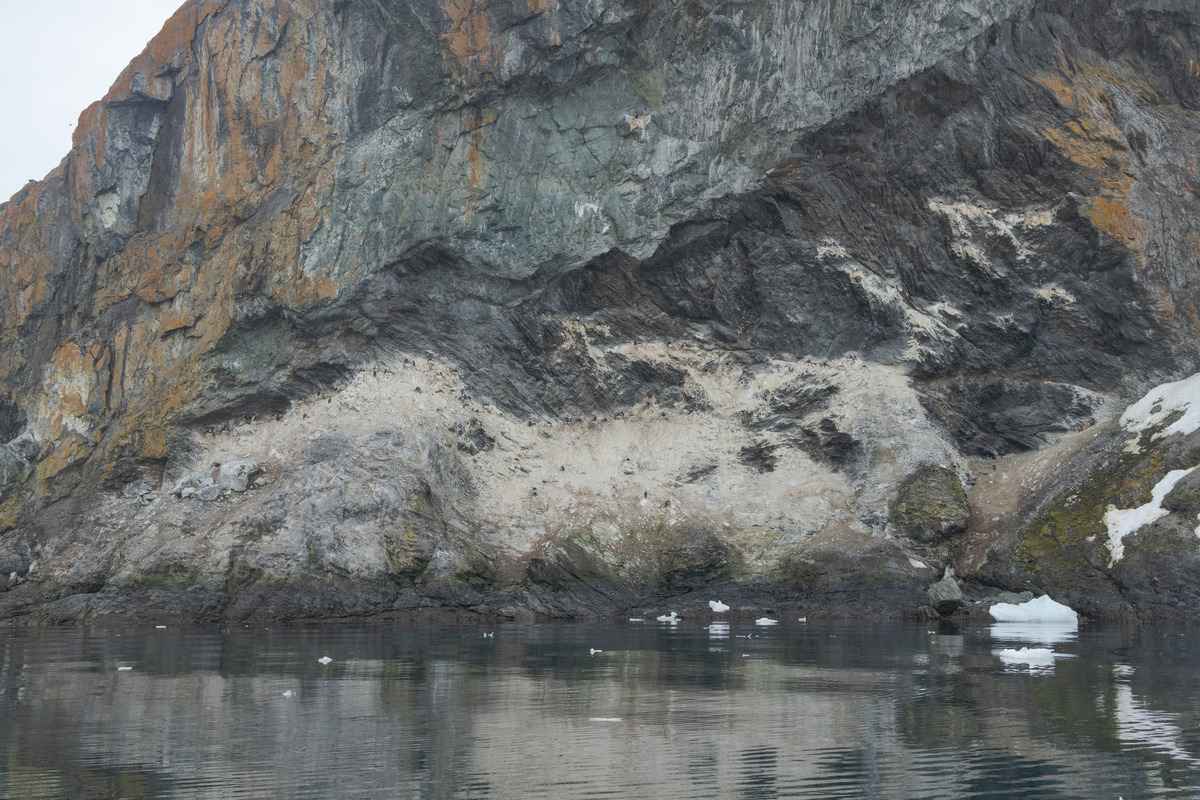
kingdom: Animalia
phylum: Chordata
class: Aves
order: Suliformes
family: Phalacrocoracidae
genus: Leucocarbo
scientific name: Leucocarbo atriceps
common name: Antarctic shag
